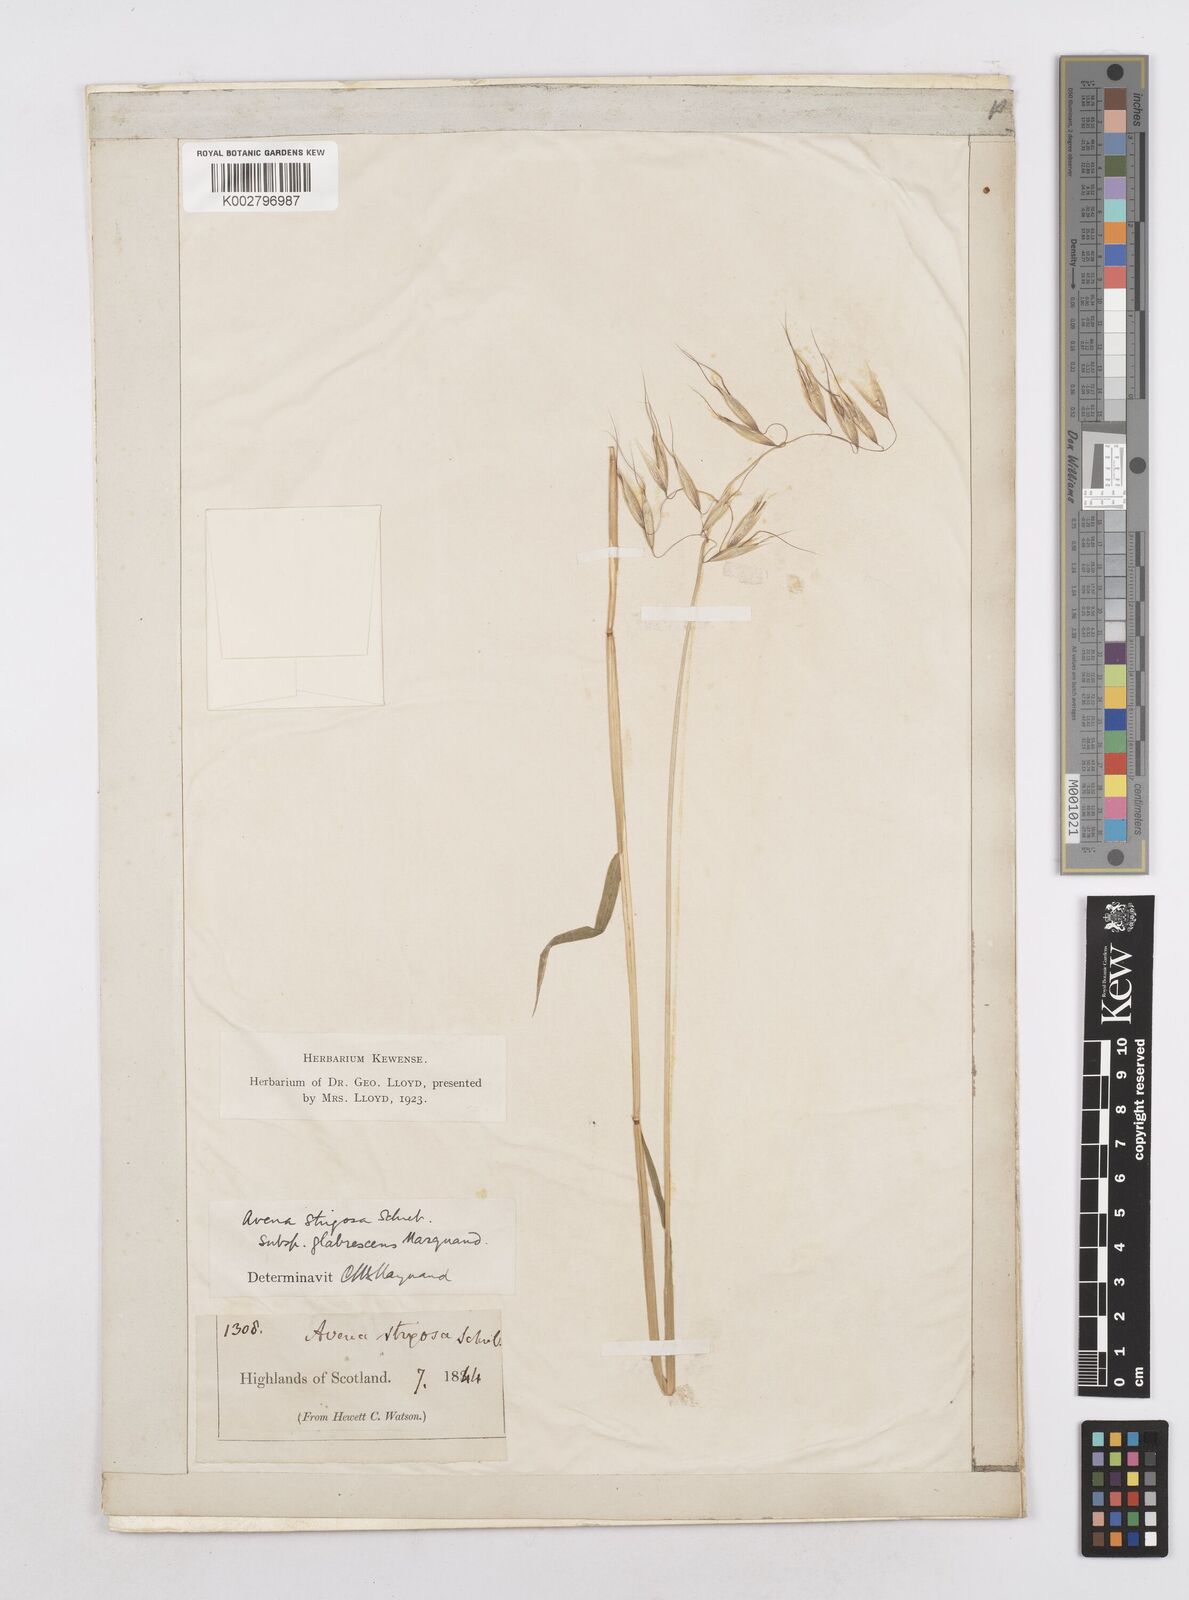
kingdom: Plantae
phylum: Tracheophyta
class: Liliopsida
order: Poales
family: Poaceae
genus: Avena
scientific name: Avena strigosa
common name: Bristle oat
